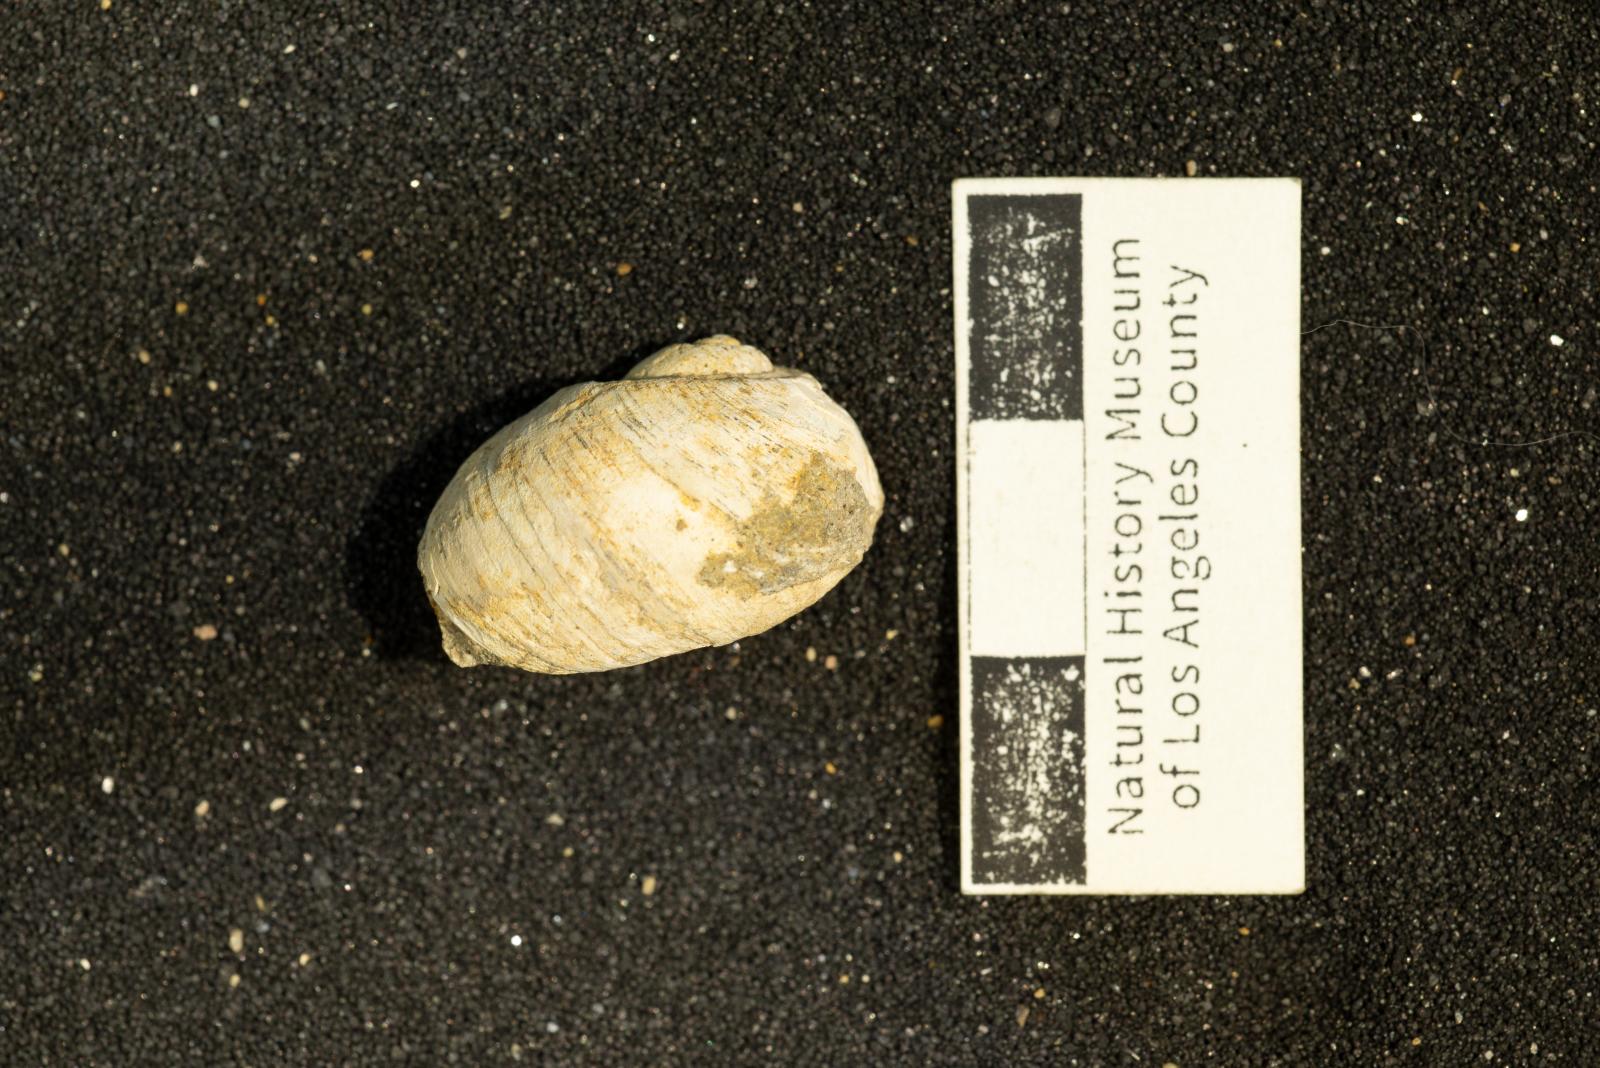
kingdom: Animalia
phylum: Mollusca
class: Gastropoda
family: Gyrodidae
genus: Gyrodes
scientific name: Gyrodes pacificus
